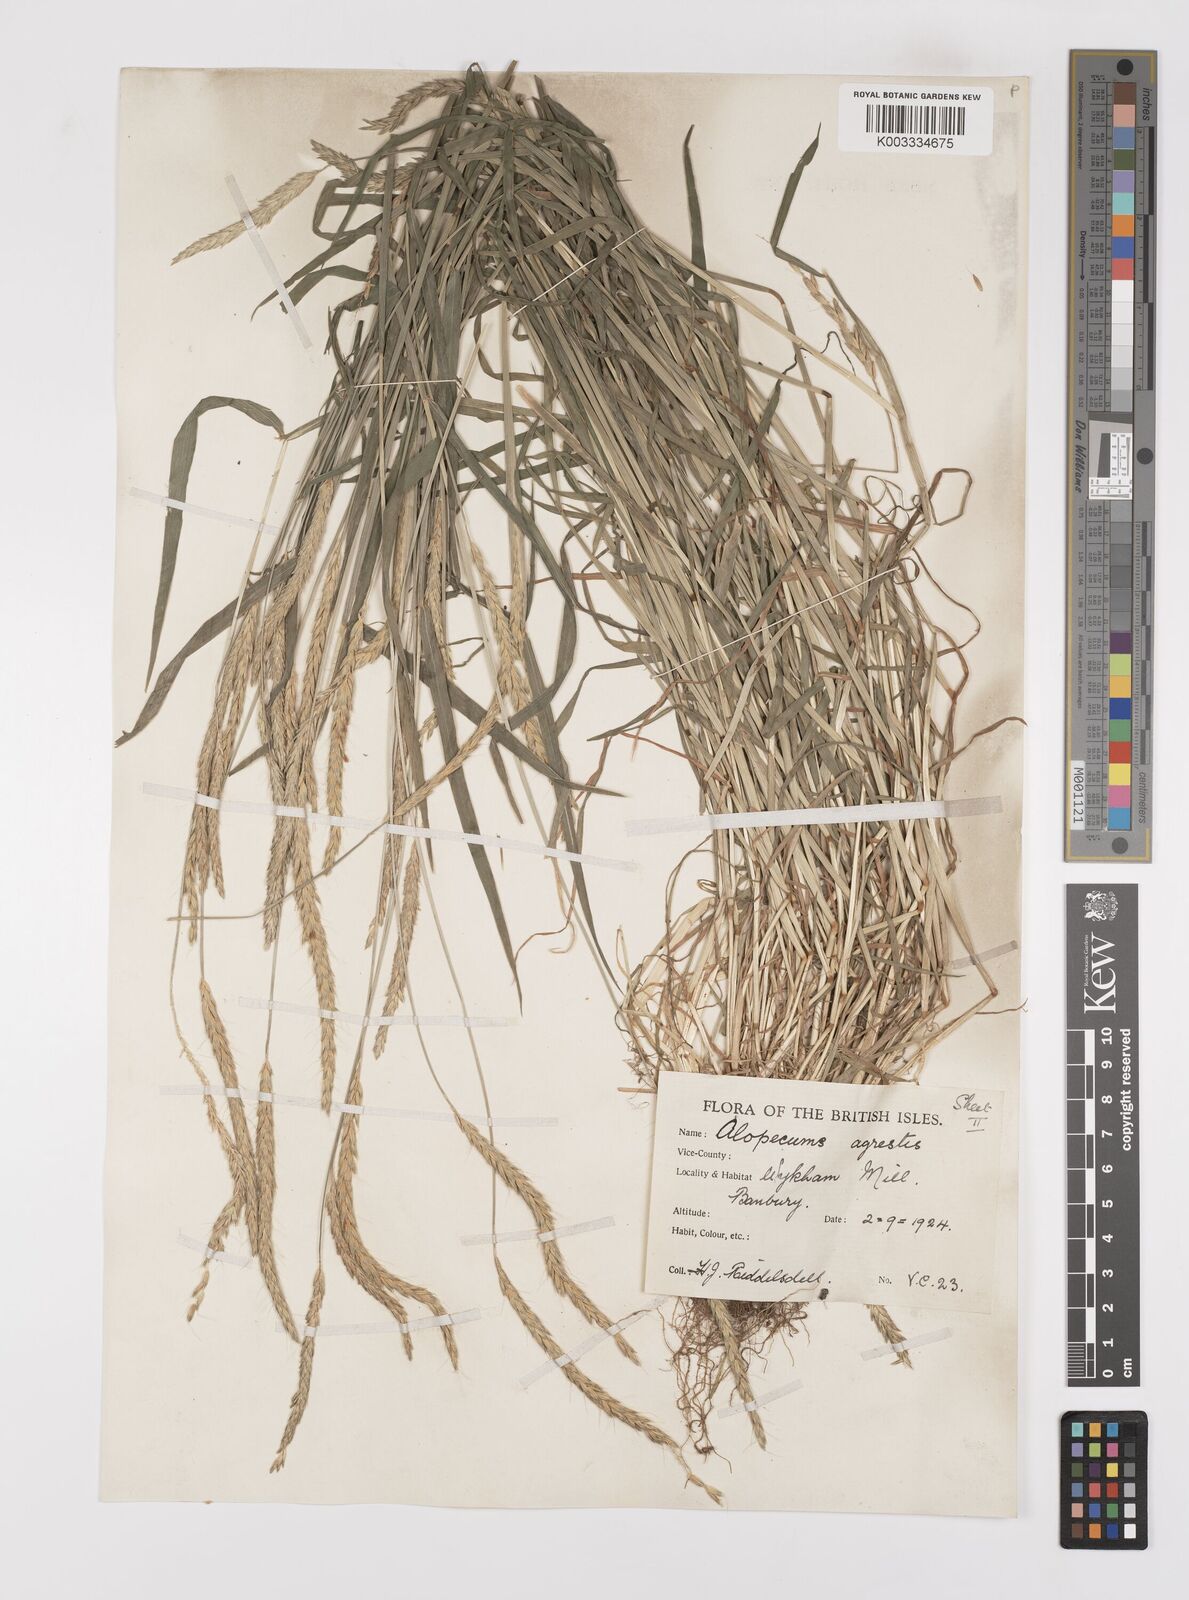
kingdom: Plantae
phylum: Tracheophyta
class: Liliopsida
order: Poales
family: Poaceae
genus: Alopecurus
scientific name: Alopecurus myosuroides
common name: Black-grass
